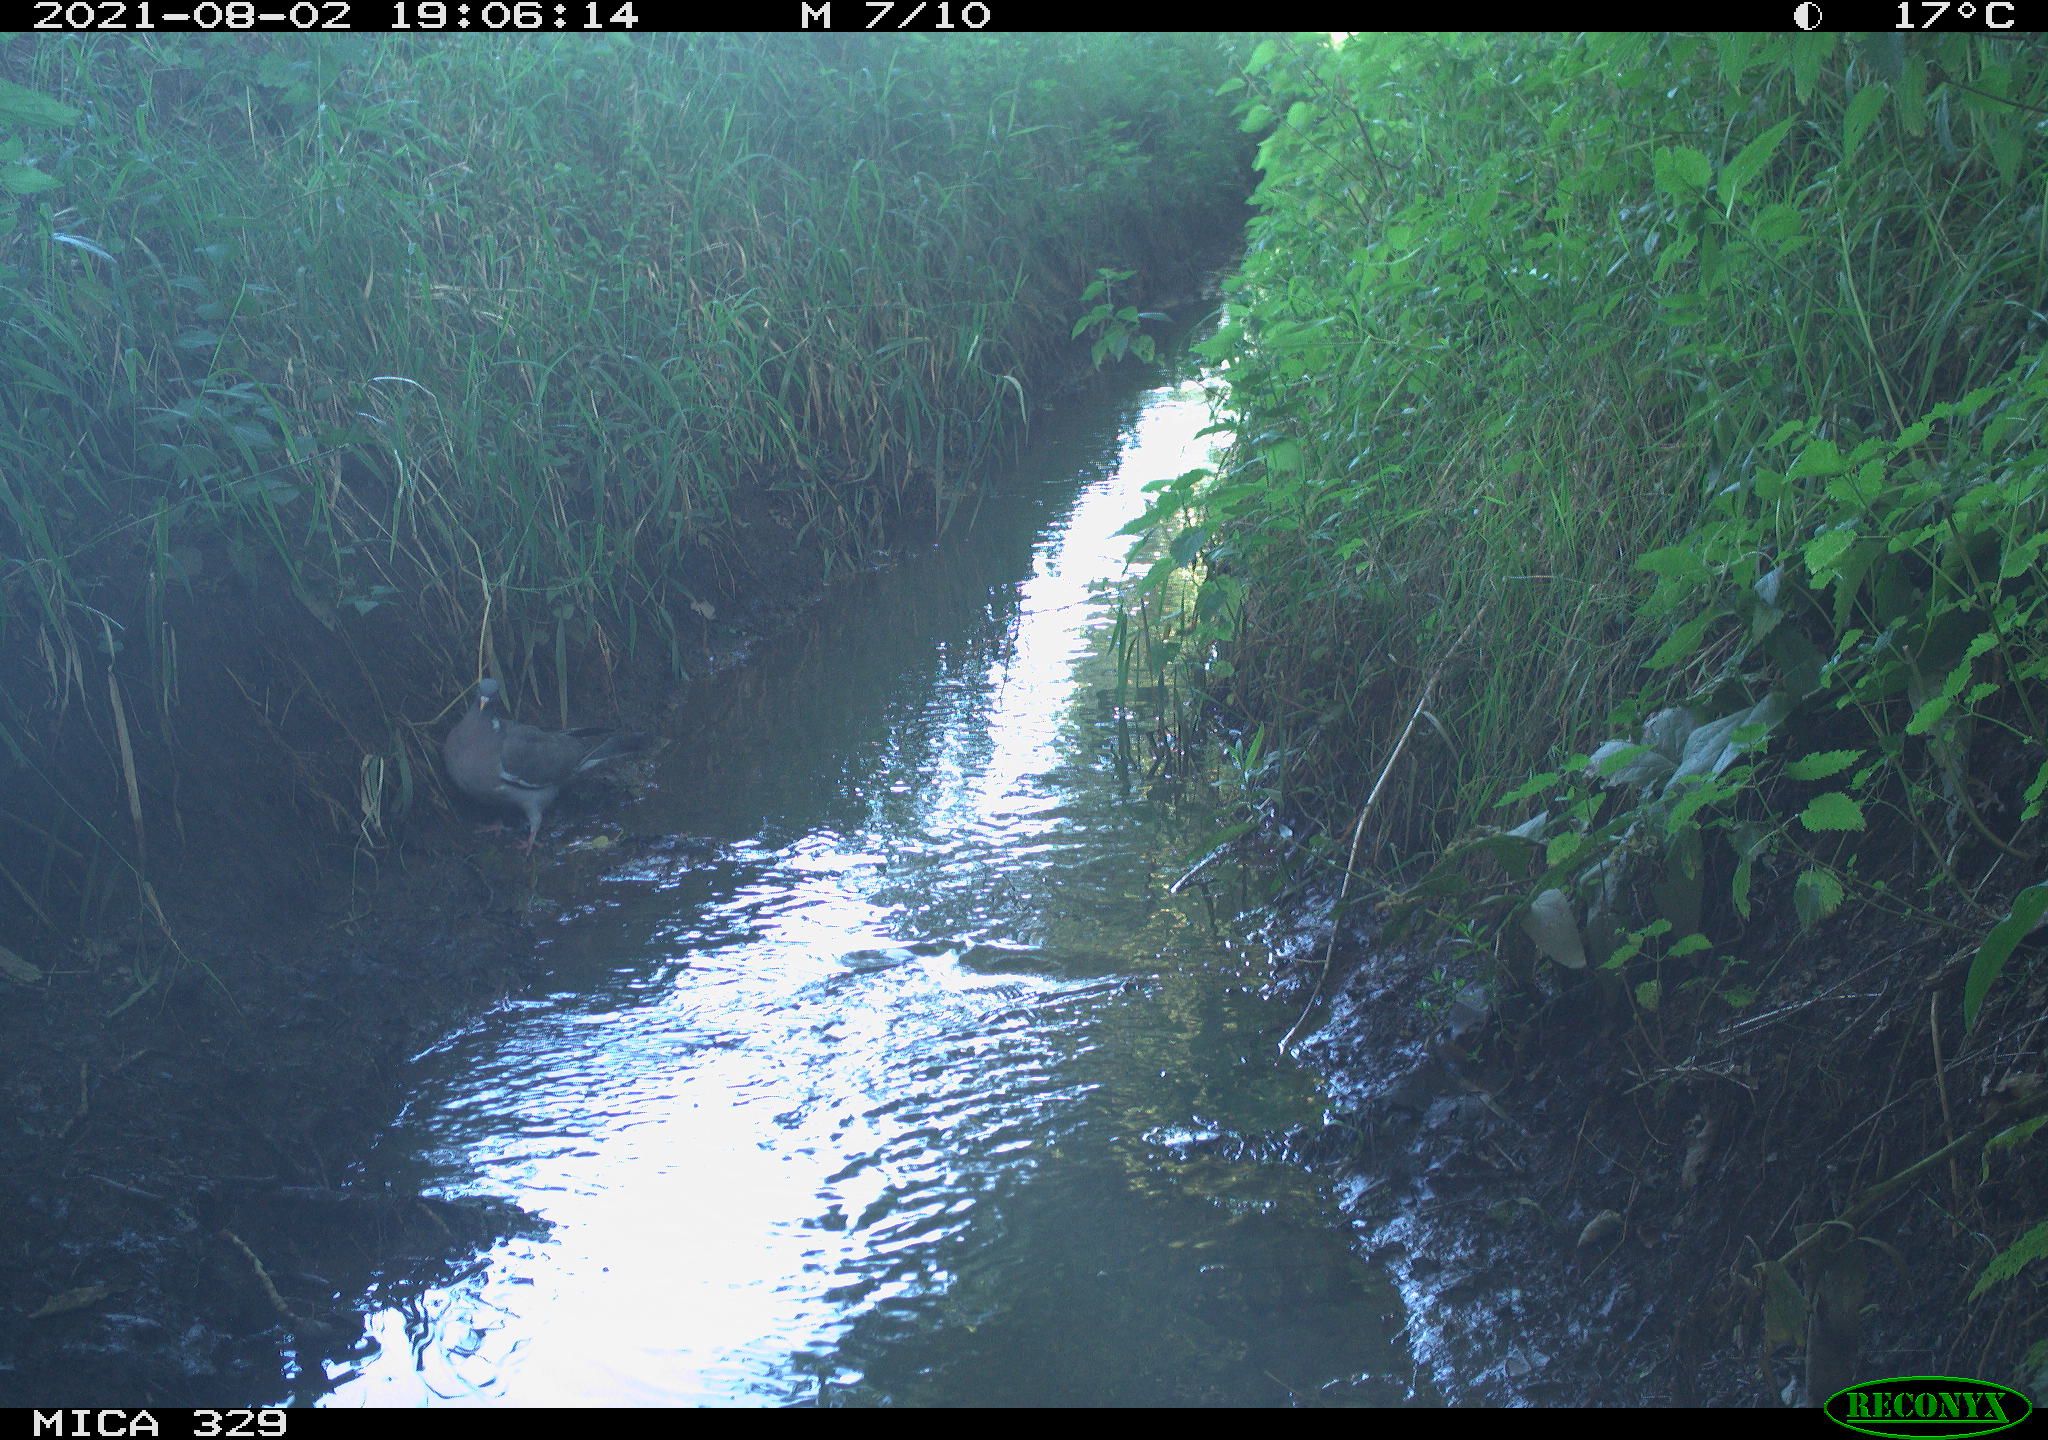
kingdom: Animalia
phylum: Chordata
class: Aves
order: Columbiformes
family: Columbidae
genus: Columba
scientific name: Columba palumbus
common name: Common wood pigeon
